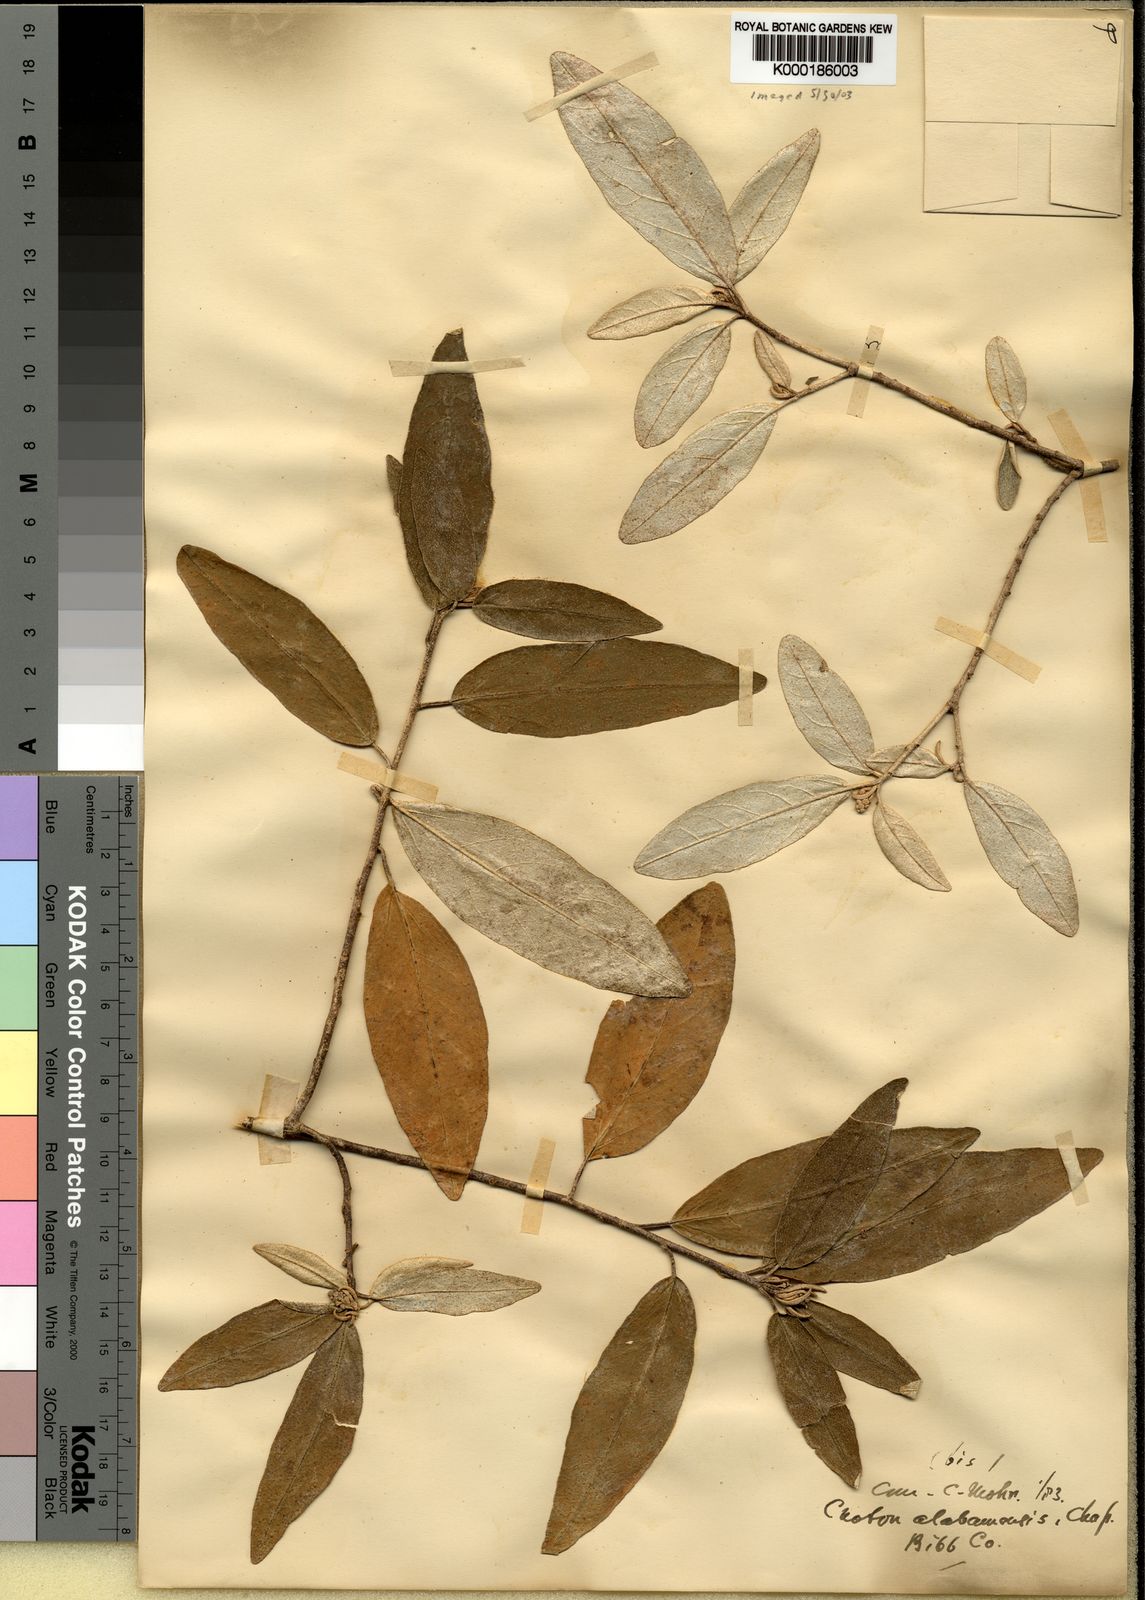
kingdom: Plantae
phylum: Tracheophyta
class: Magnoliopsida
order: Malpighiales
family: Euphorbiaceae
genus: Croton
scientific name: Croton alabamensis
